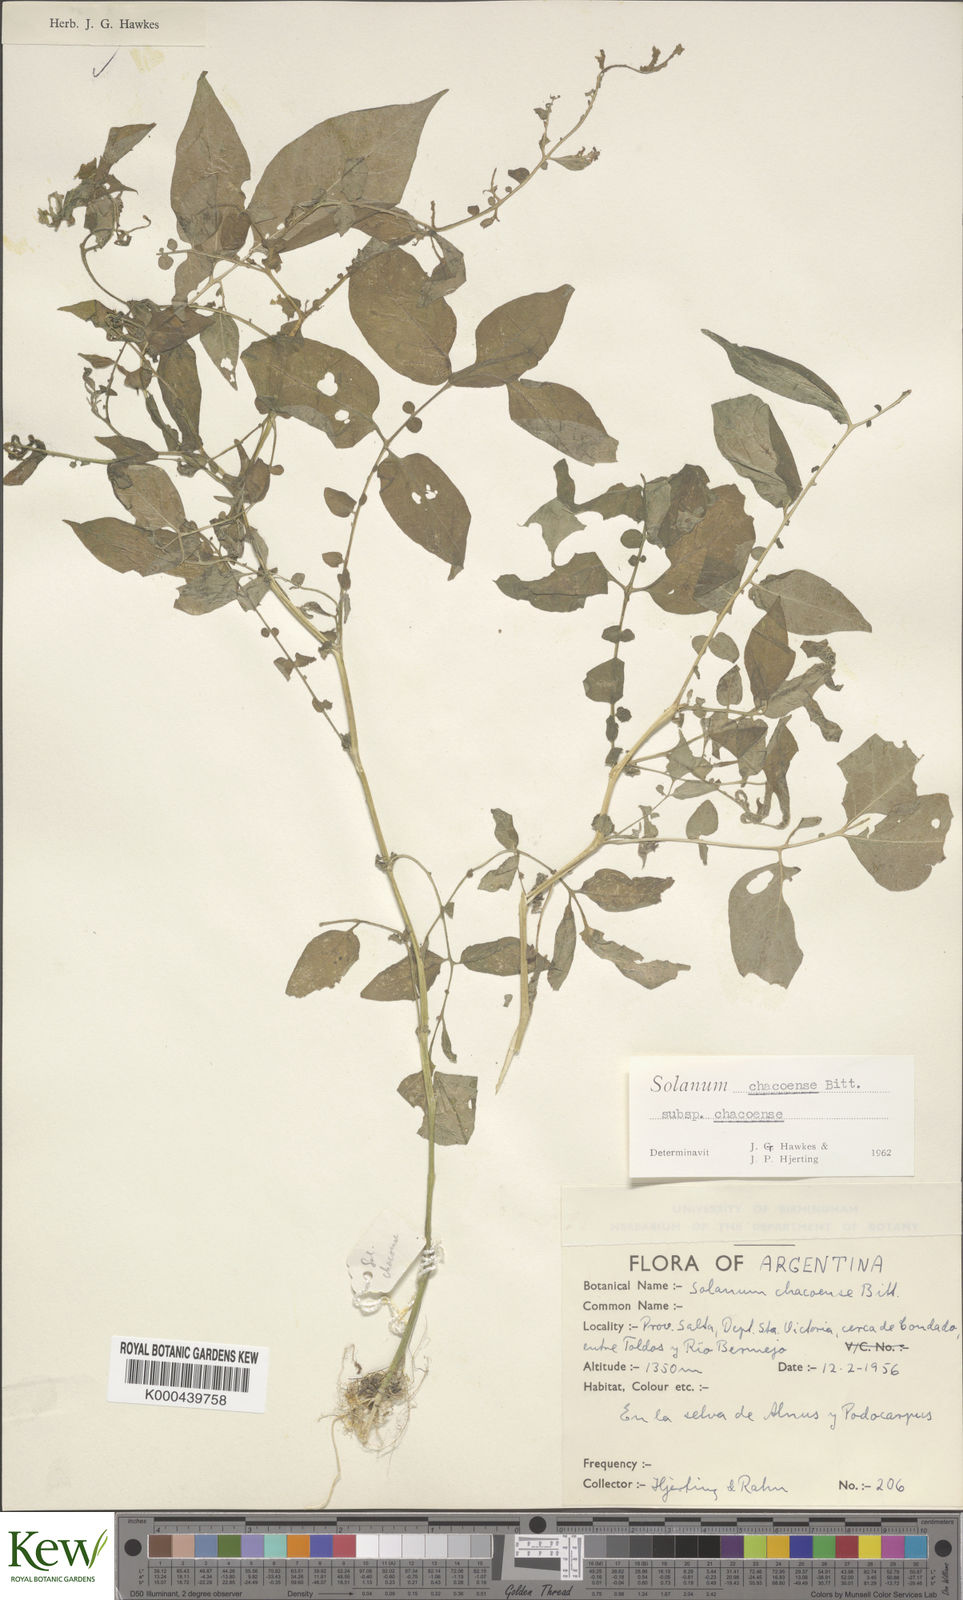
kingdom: Plantae
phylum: Tracheophyta
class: Magnoliopsida
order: Solanales
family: Solanaceae
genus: Solanum
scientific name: Solanum chacoense
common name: Chaco potato
